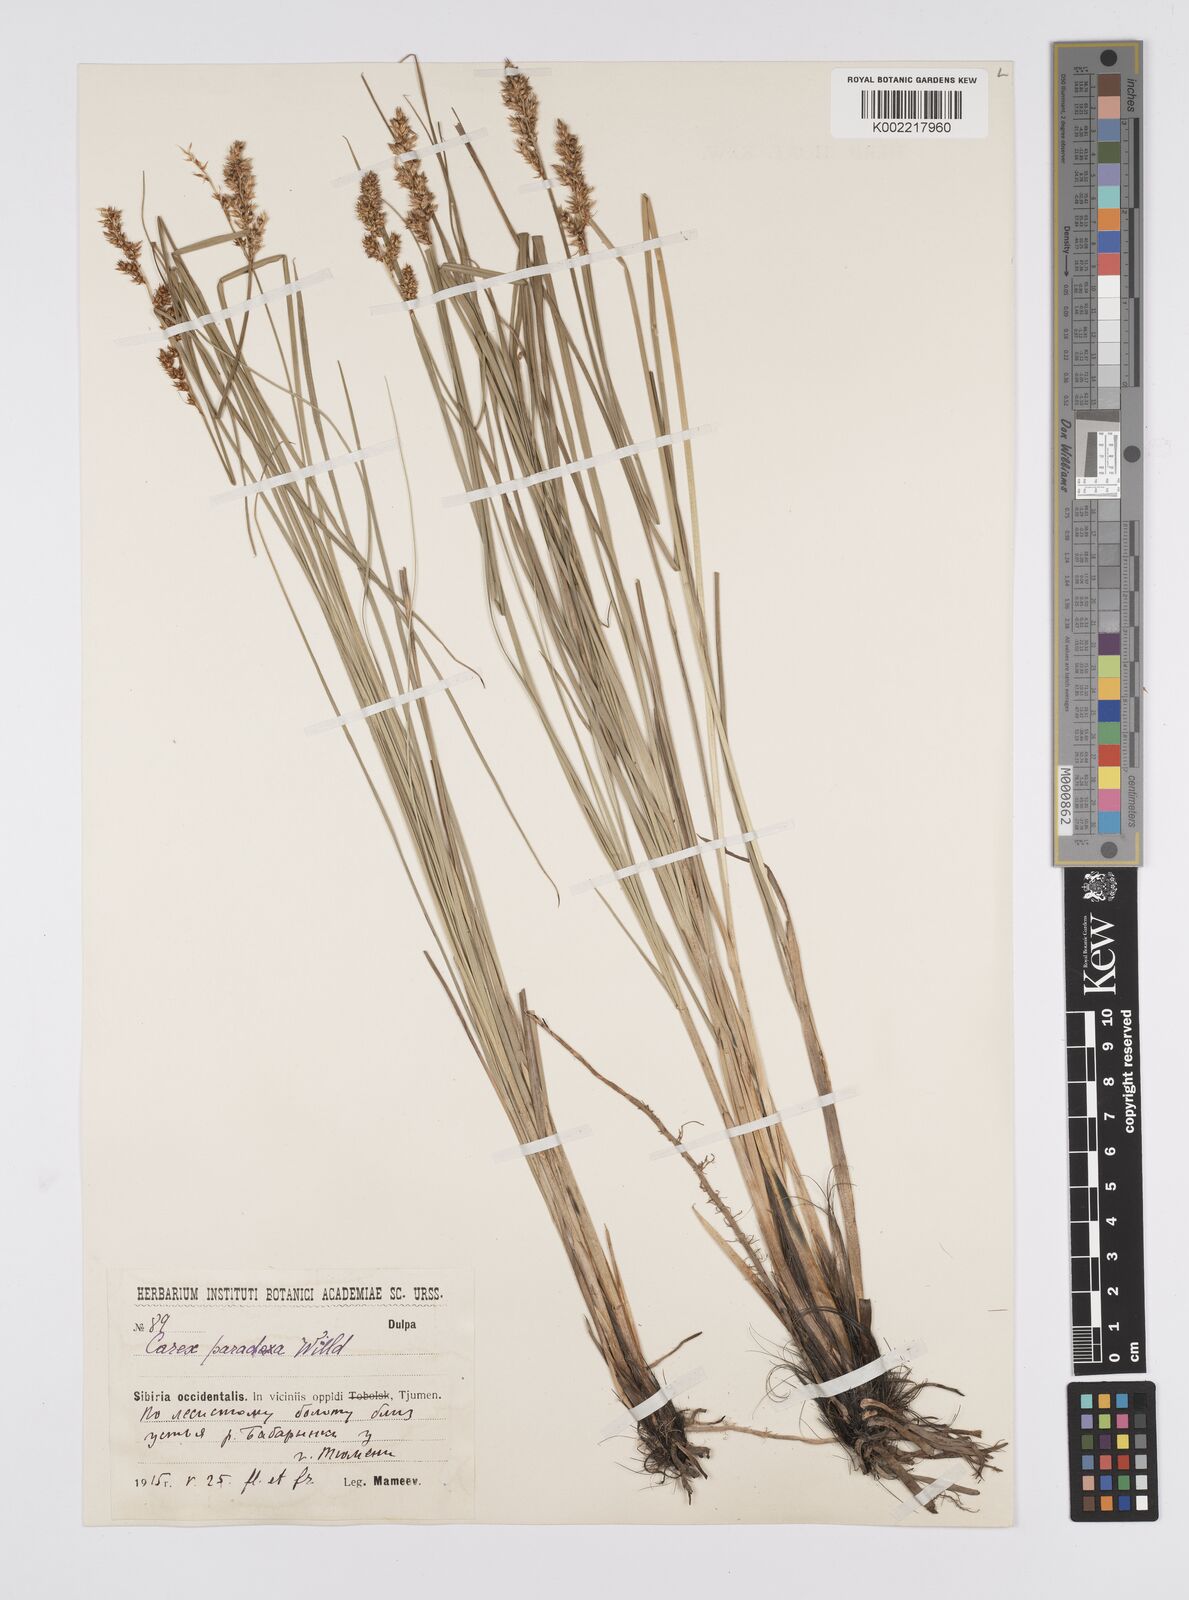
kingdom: Plantae
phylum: Tracheophyta
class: Liliopsida
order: Poales
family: Cyperaceae
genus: Carex
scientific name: Carex appropinquata
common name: Fibrous tussock-sedge
